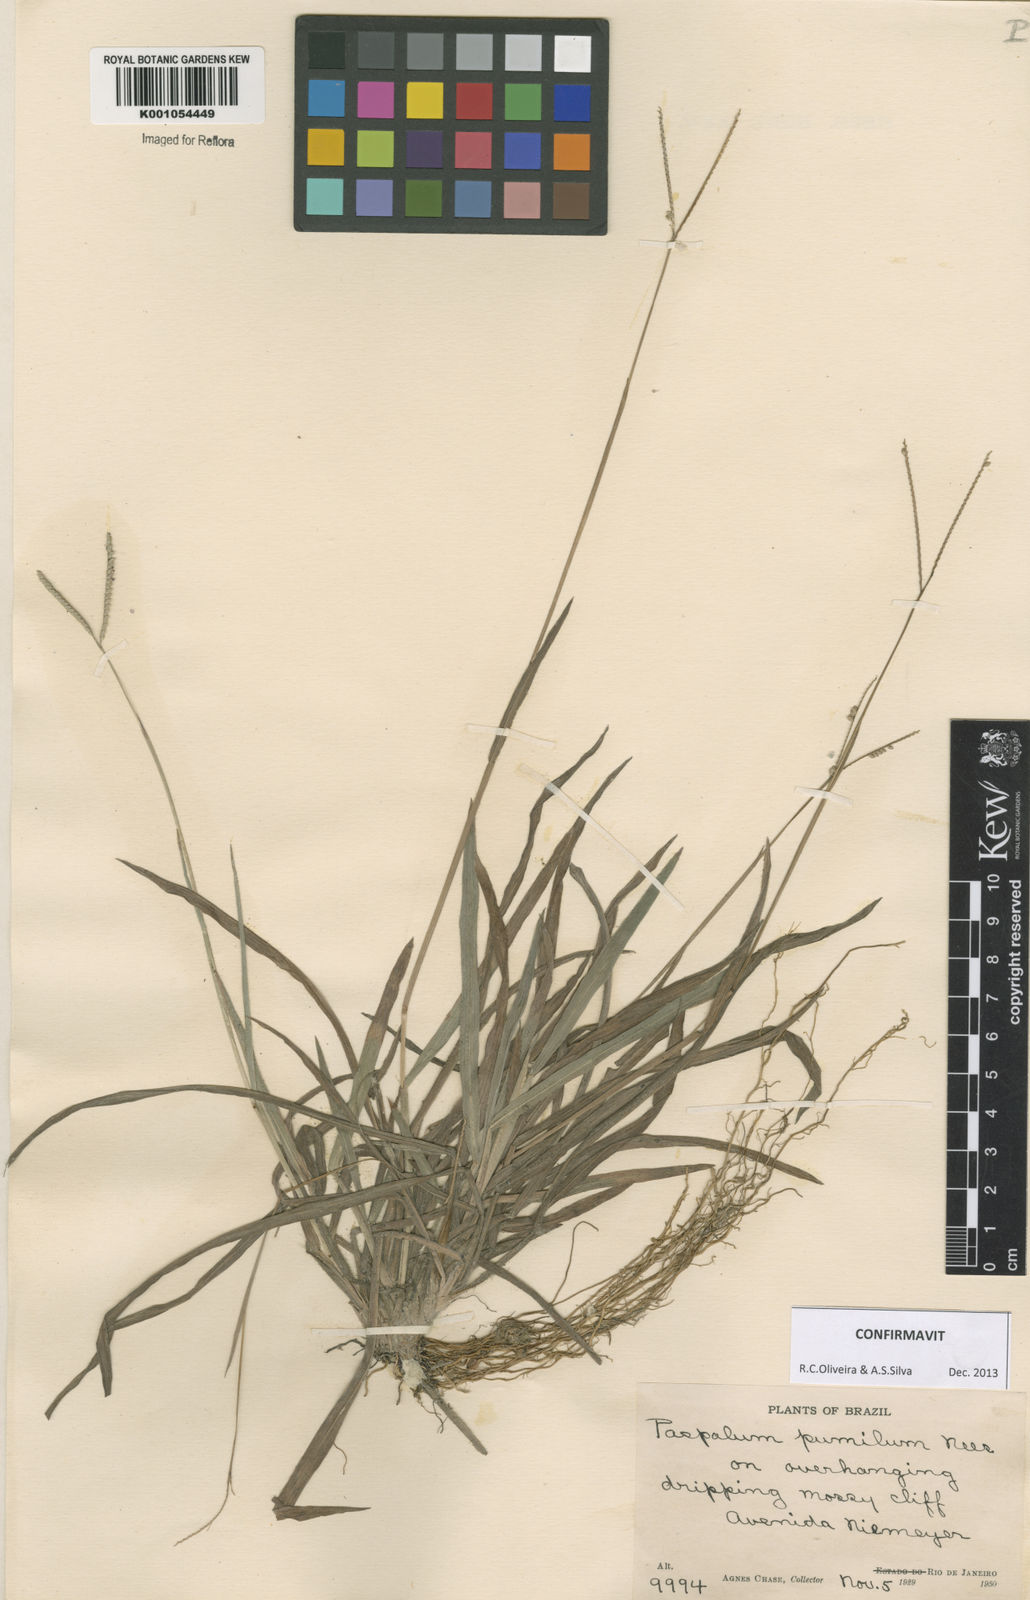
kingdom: Plantae
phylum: Tracheophyta
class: Liliopsida
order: Poales
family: Poaceae
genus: Paspalum
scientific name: Paspalum pumilum
